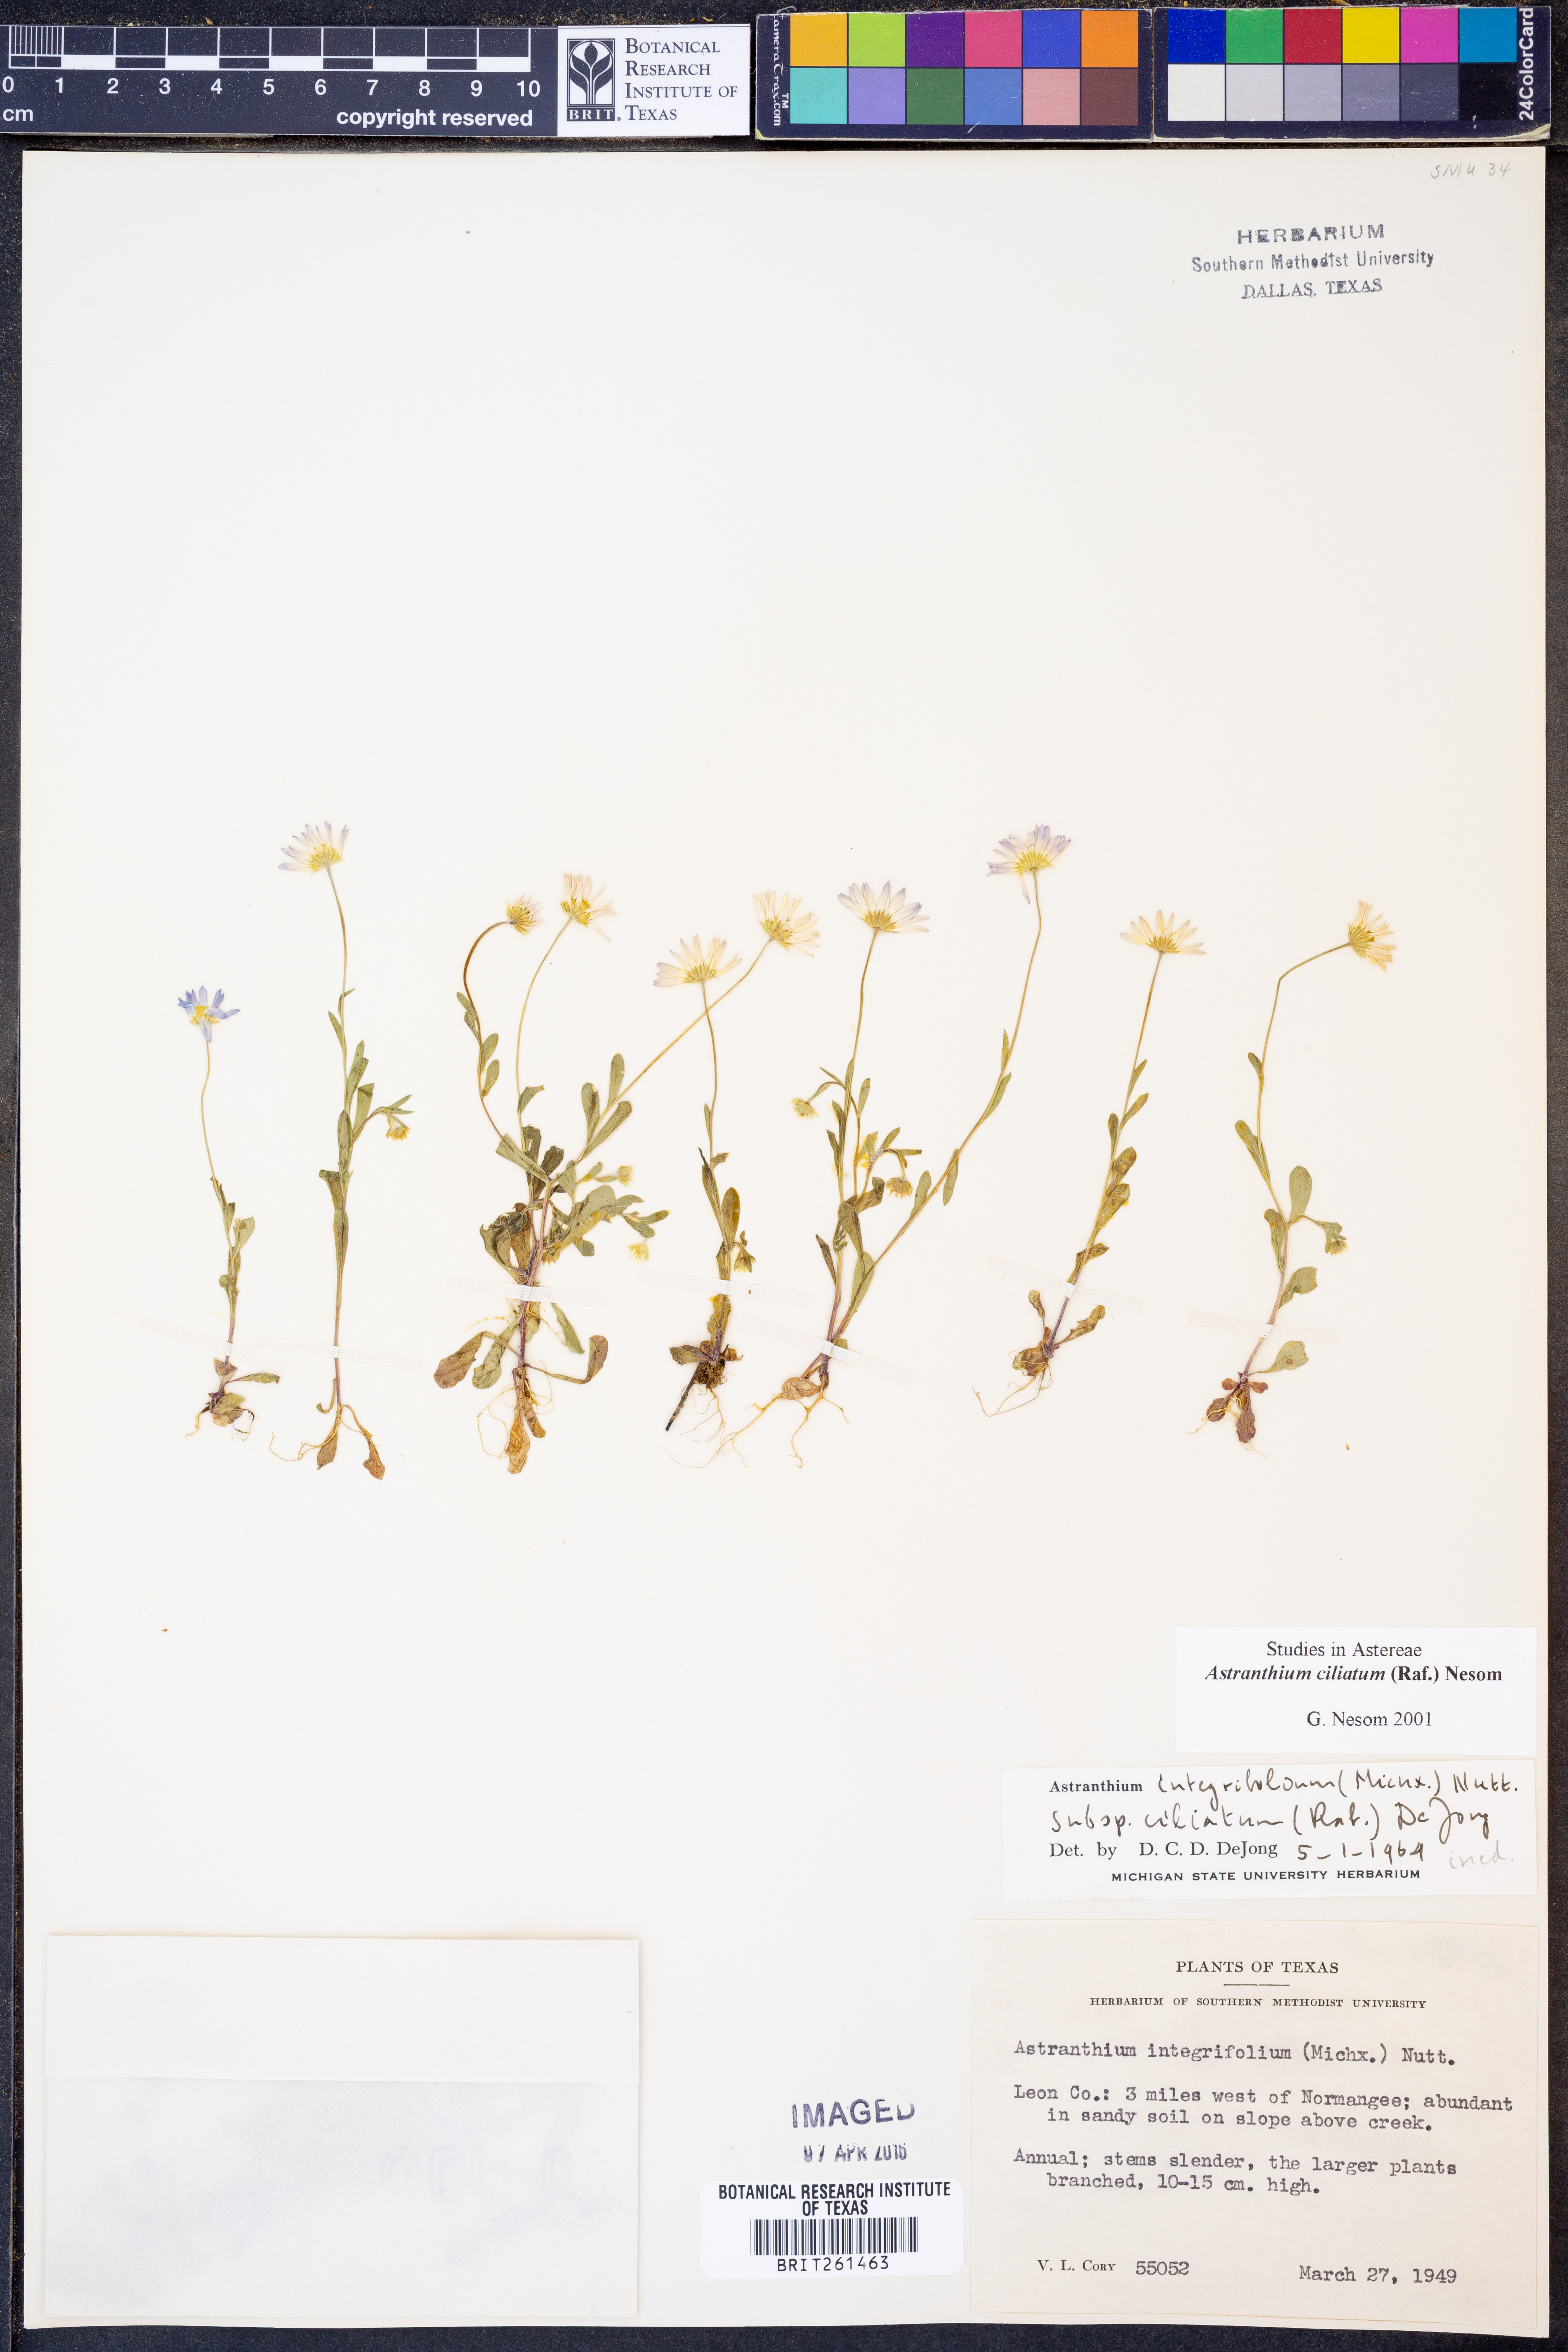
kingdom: Plantae
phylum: Tracheophyta
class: Magnoliopsida
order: Asterales
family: Asteraceae
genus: Astranthium
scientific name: Astranthium ciliatum
